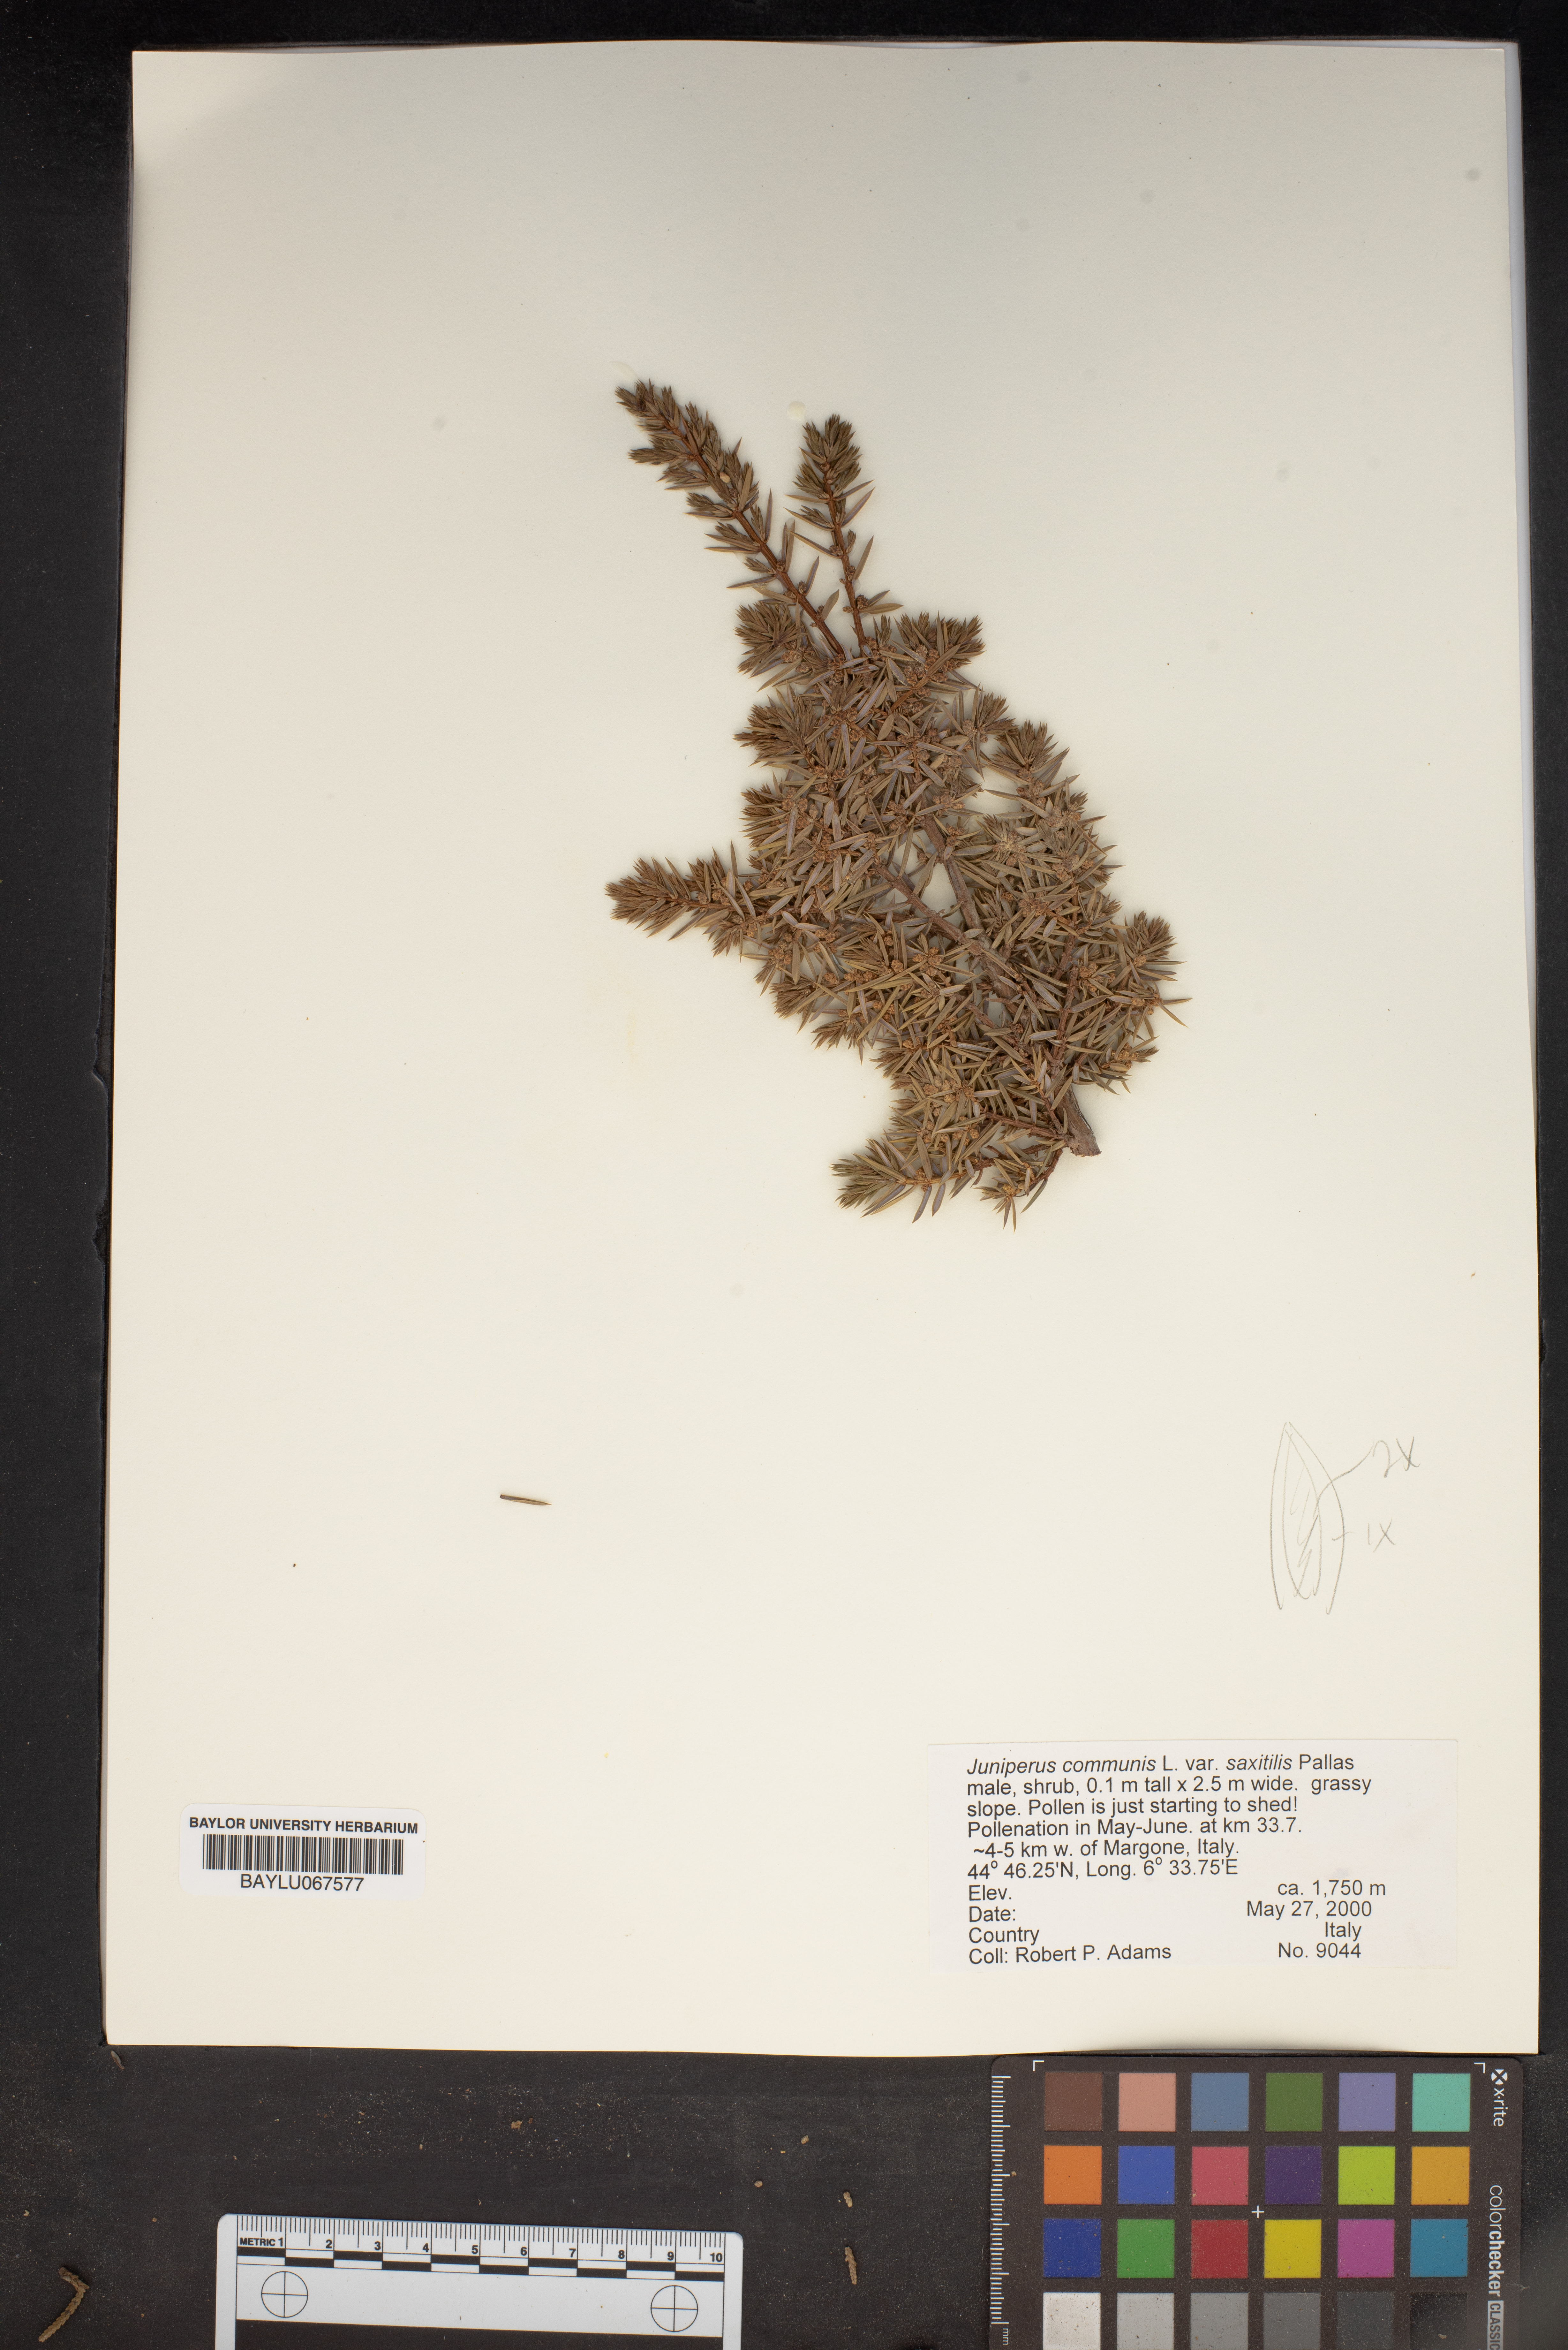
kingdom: Plantae
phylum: Tracheophyta
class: Pinopsida
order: Pinales
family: Cupressaceae
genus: Juniperus
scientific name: Juniperus communis
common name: Common juniper
